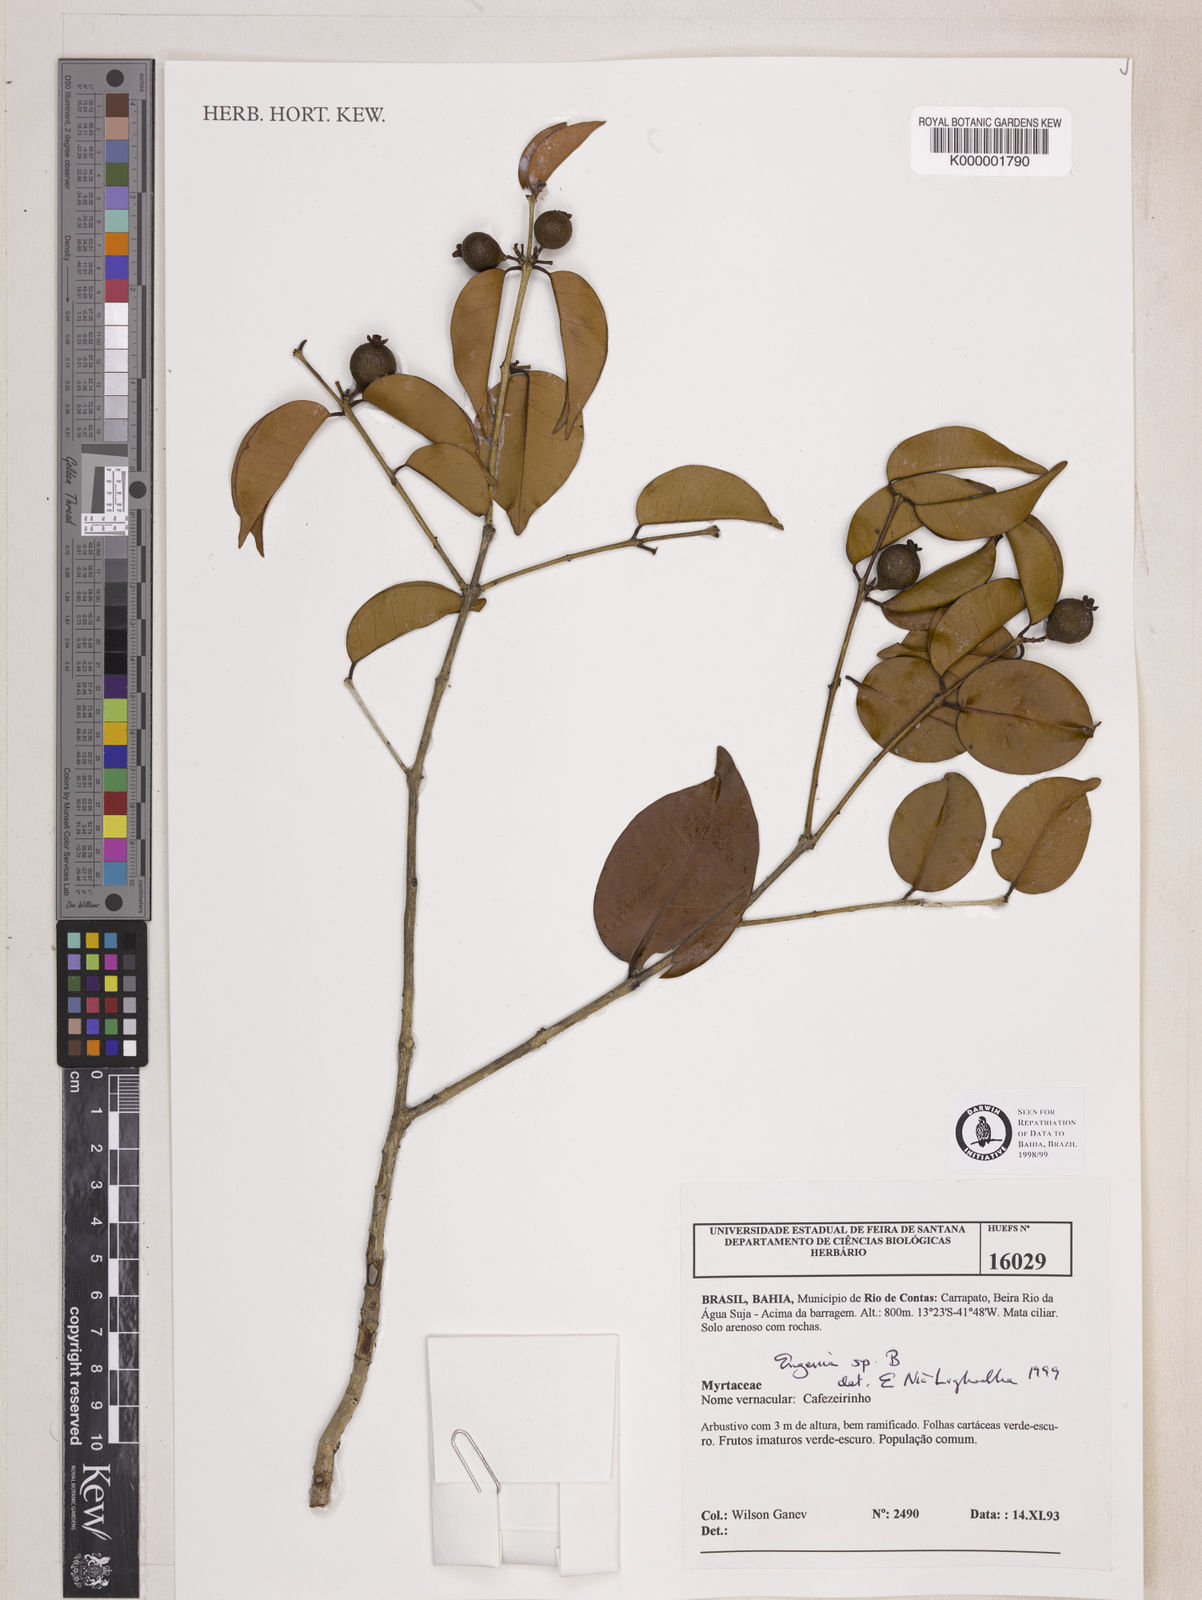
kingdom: Plantae
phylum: Tracheophyta
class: Magnoliopsida
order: Myrtales
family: Myrtaceae
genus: Eugenia
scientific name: Eugenia
